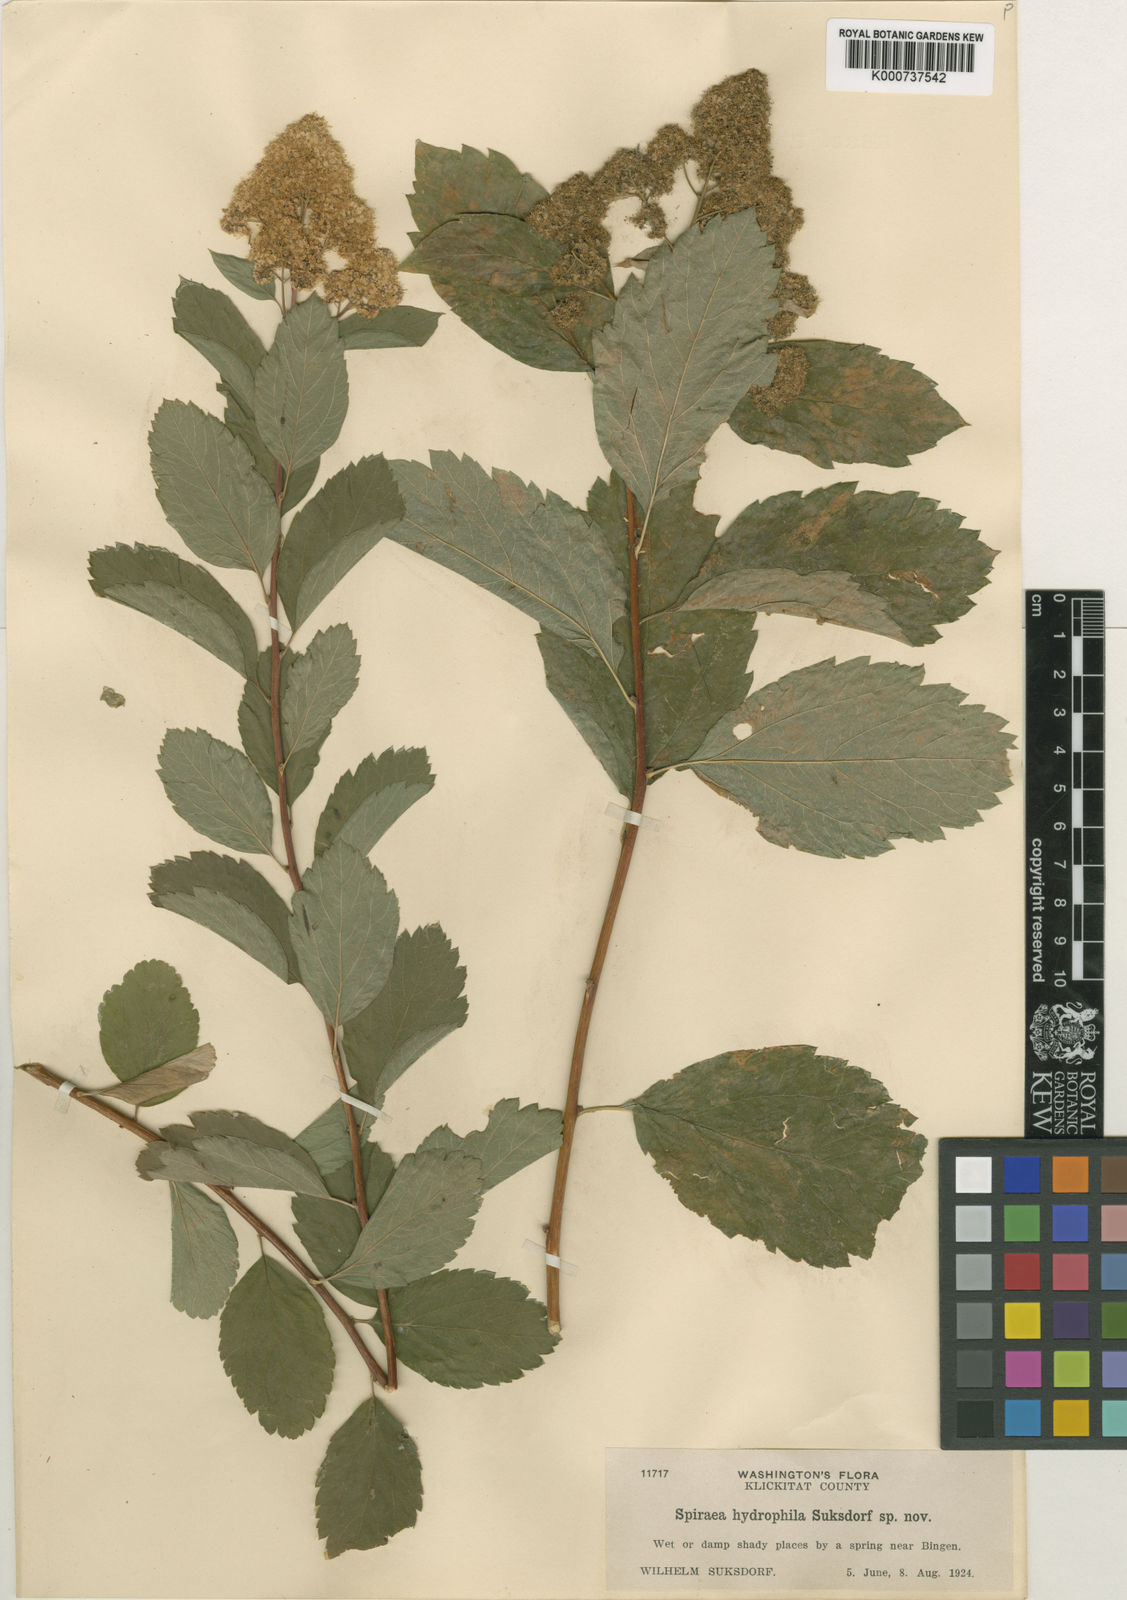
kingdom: Plantae
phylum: Tracheophyta
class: Magnoliopsida
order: Rosales
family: Rosaceae
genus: Spiraea
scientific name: Spiraea
